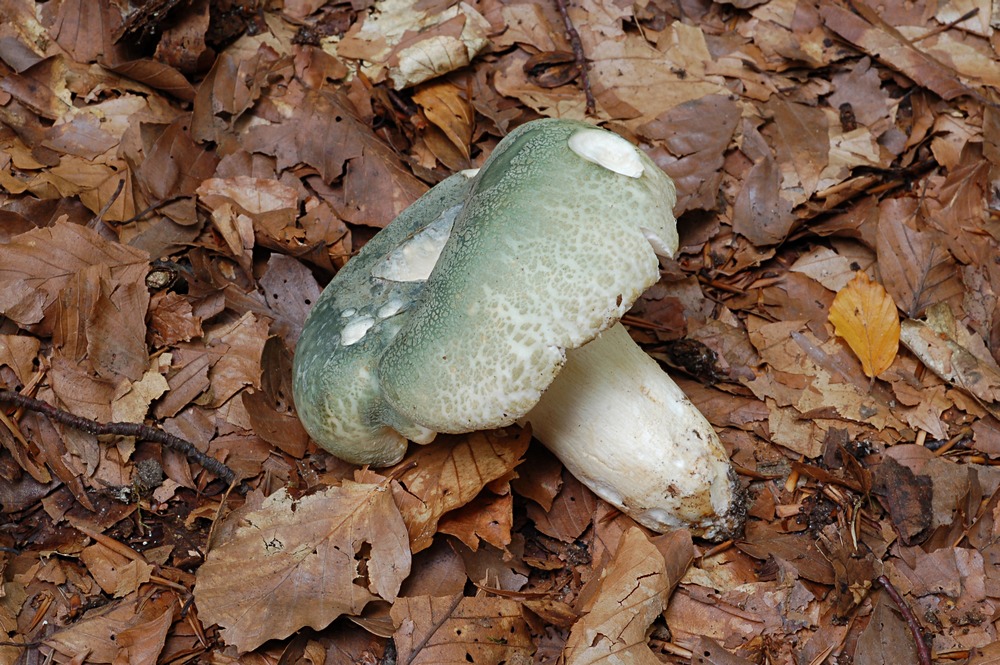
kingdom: Fungi
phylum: Basidiomycota
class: Agaricomycetes
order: Russulales
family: Russulaceae
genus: Russula
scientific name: Russula virescens
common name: spanskgrøn skørhat
